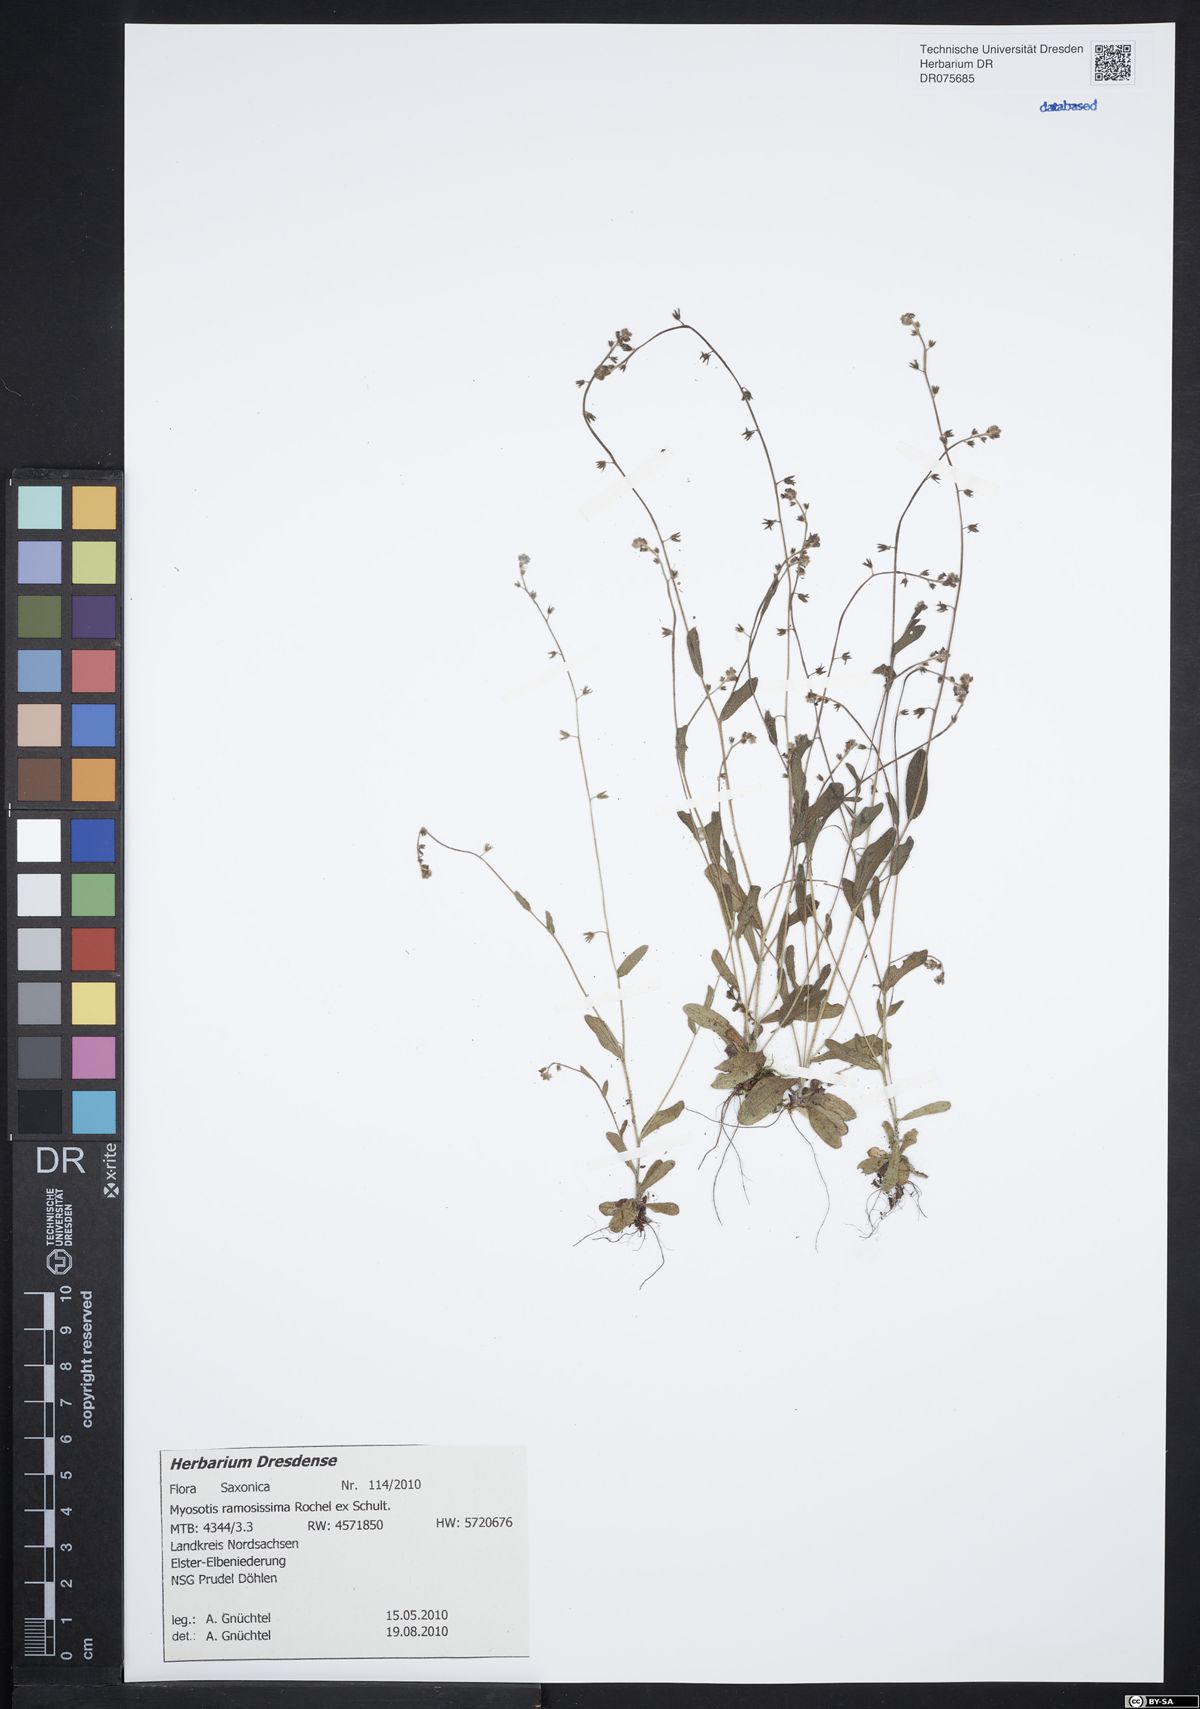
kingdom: Plantae
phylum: Tracheophyta
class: Magnoliopsida
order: Boraginales
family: Boraginaceae
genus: Myosotis
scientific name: Myosotis ramosissima
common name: Early forget-me-not
